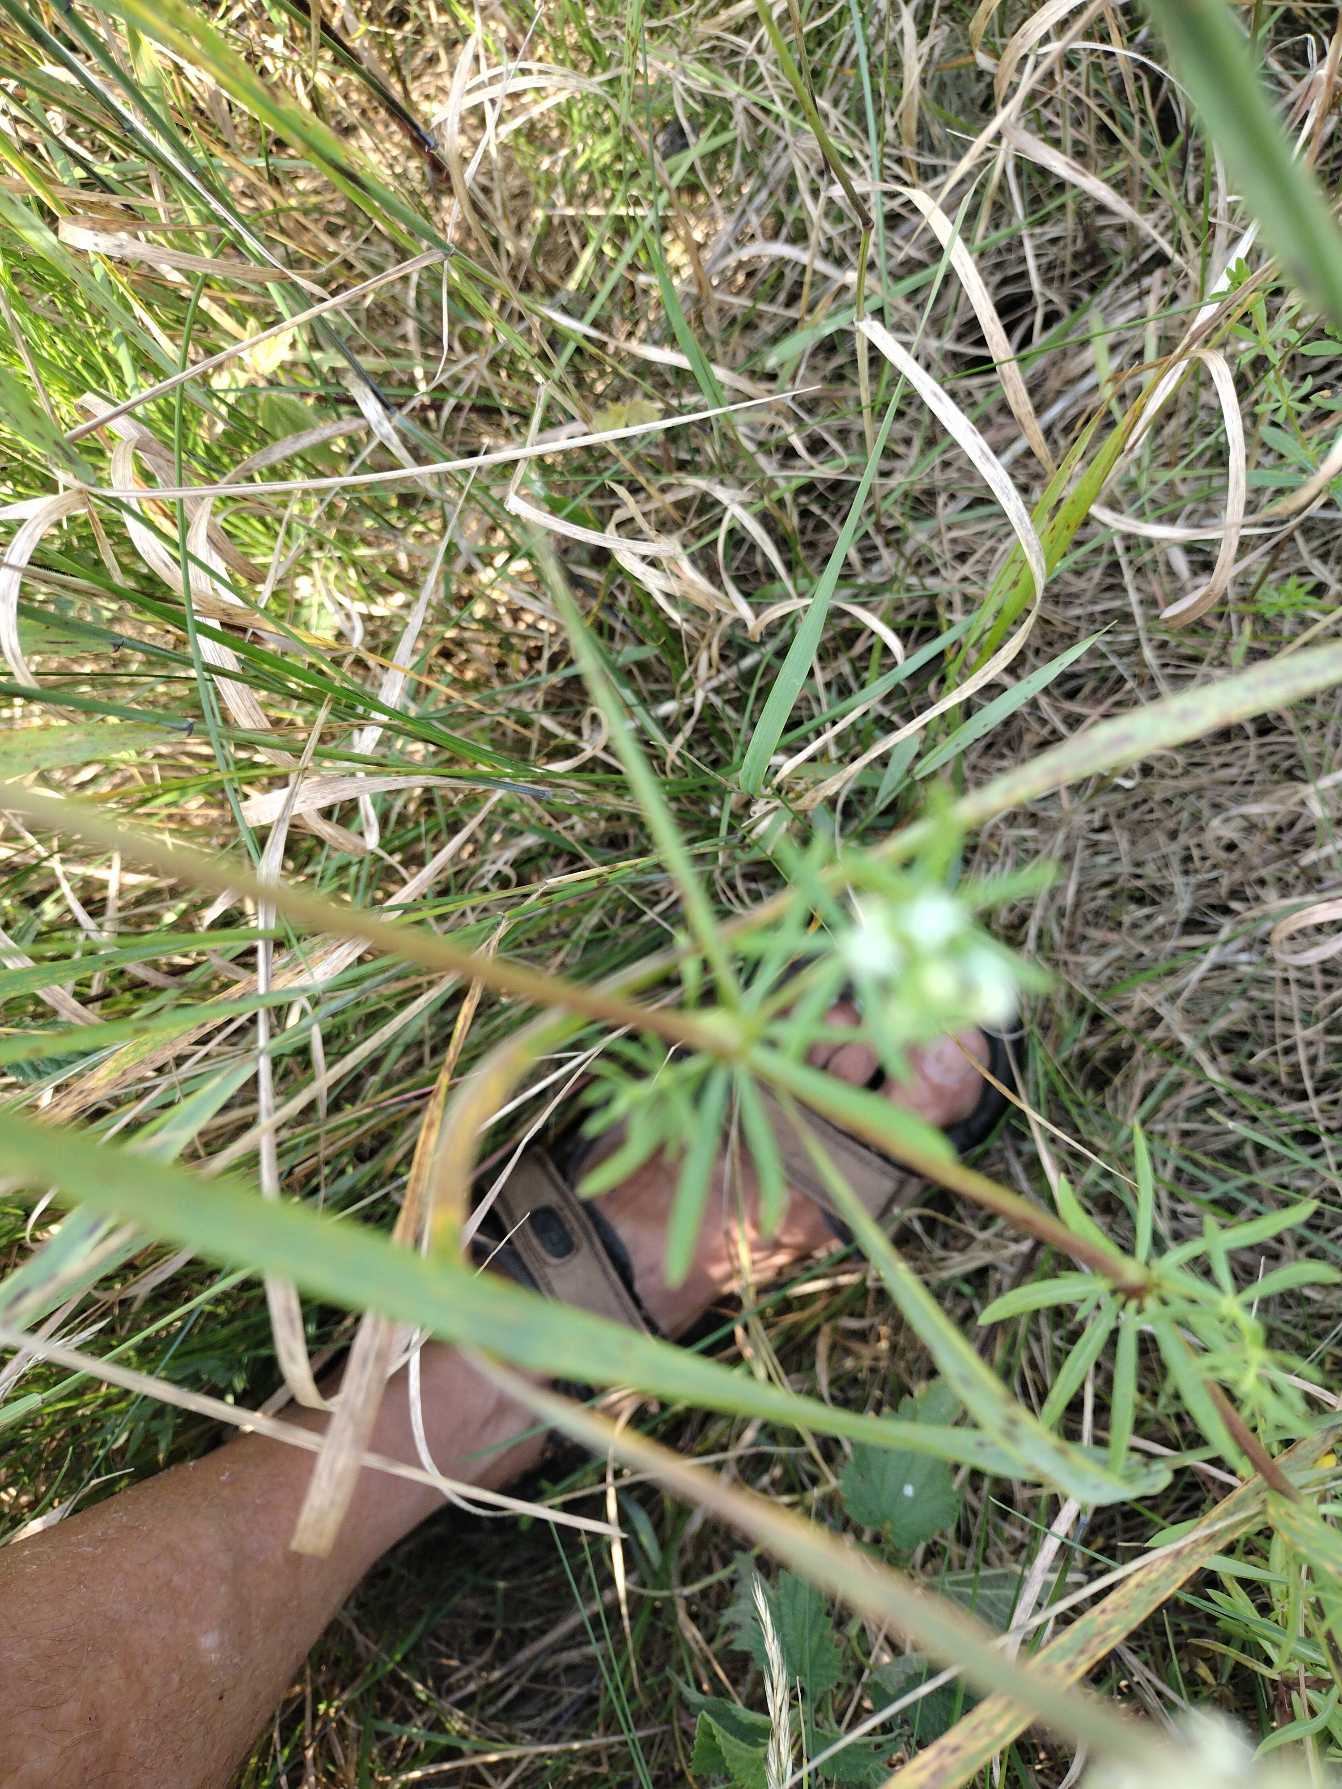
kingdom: Plantae
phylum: Tracheophyta
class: Magnoliopsida
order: Gentianales
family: Rubiaceae
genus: Galium
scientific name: Galium mollugo
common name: Hvid snerre
